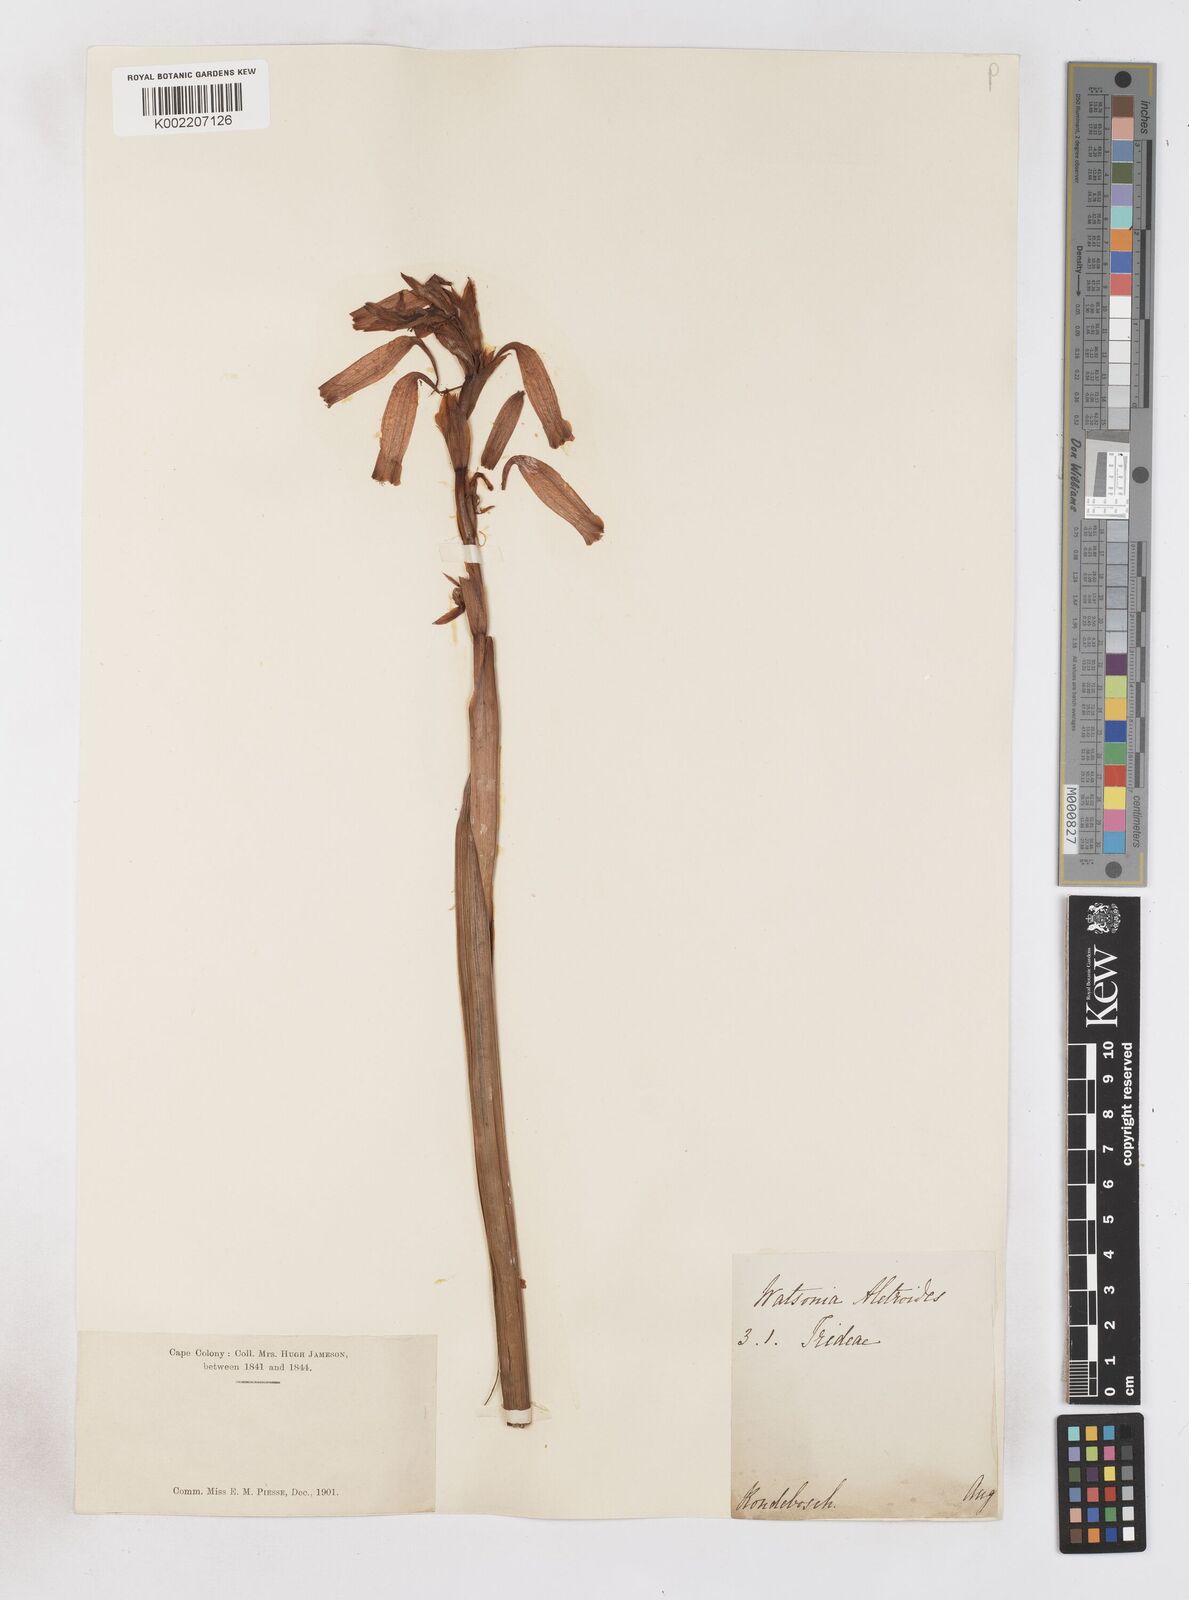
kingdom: Plantae
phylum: Tracheophyta
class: Liliopsida
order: Asparagales
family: Iridaceae
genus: Watsonia
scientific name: Watsonia aletroides
